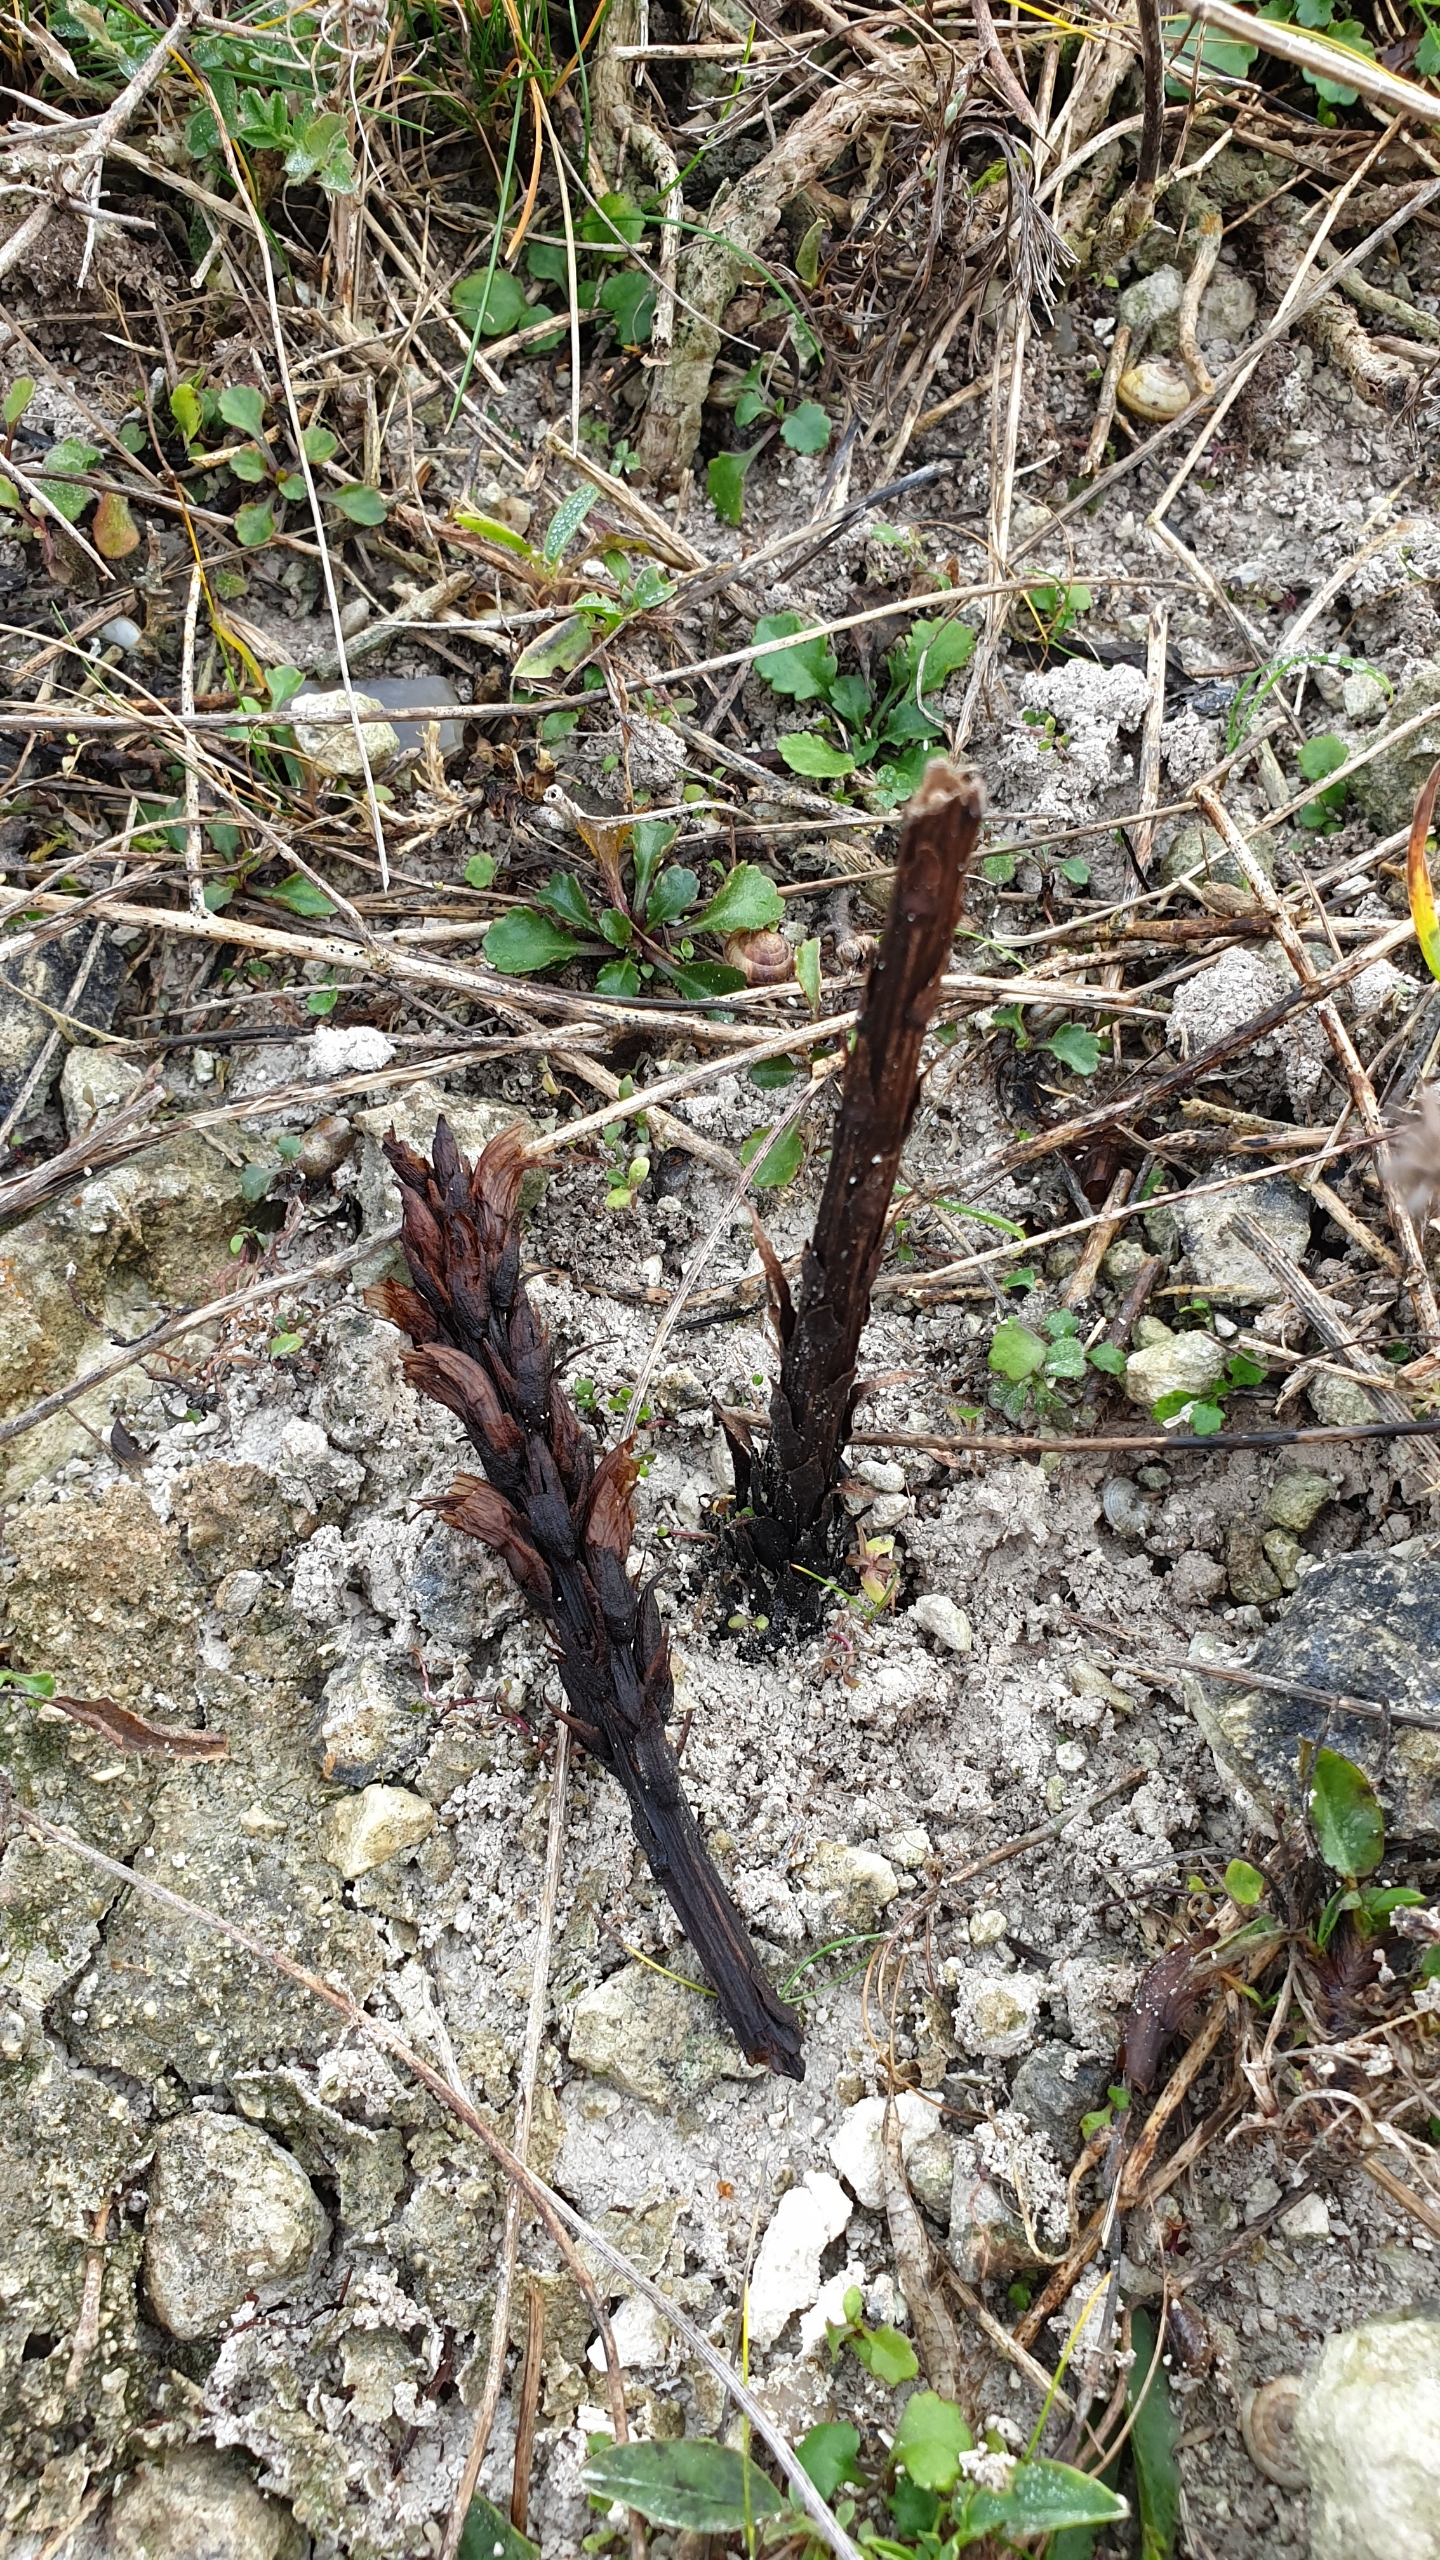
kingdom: Plantae
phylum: Tracheophyta
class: Magnoliopsida
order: Lamiales
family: Orobanchaceae
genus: Orobanche
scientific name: Orobanche elatior
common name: Stor gyvelkvæler
